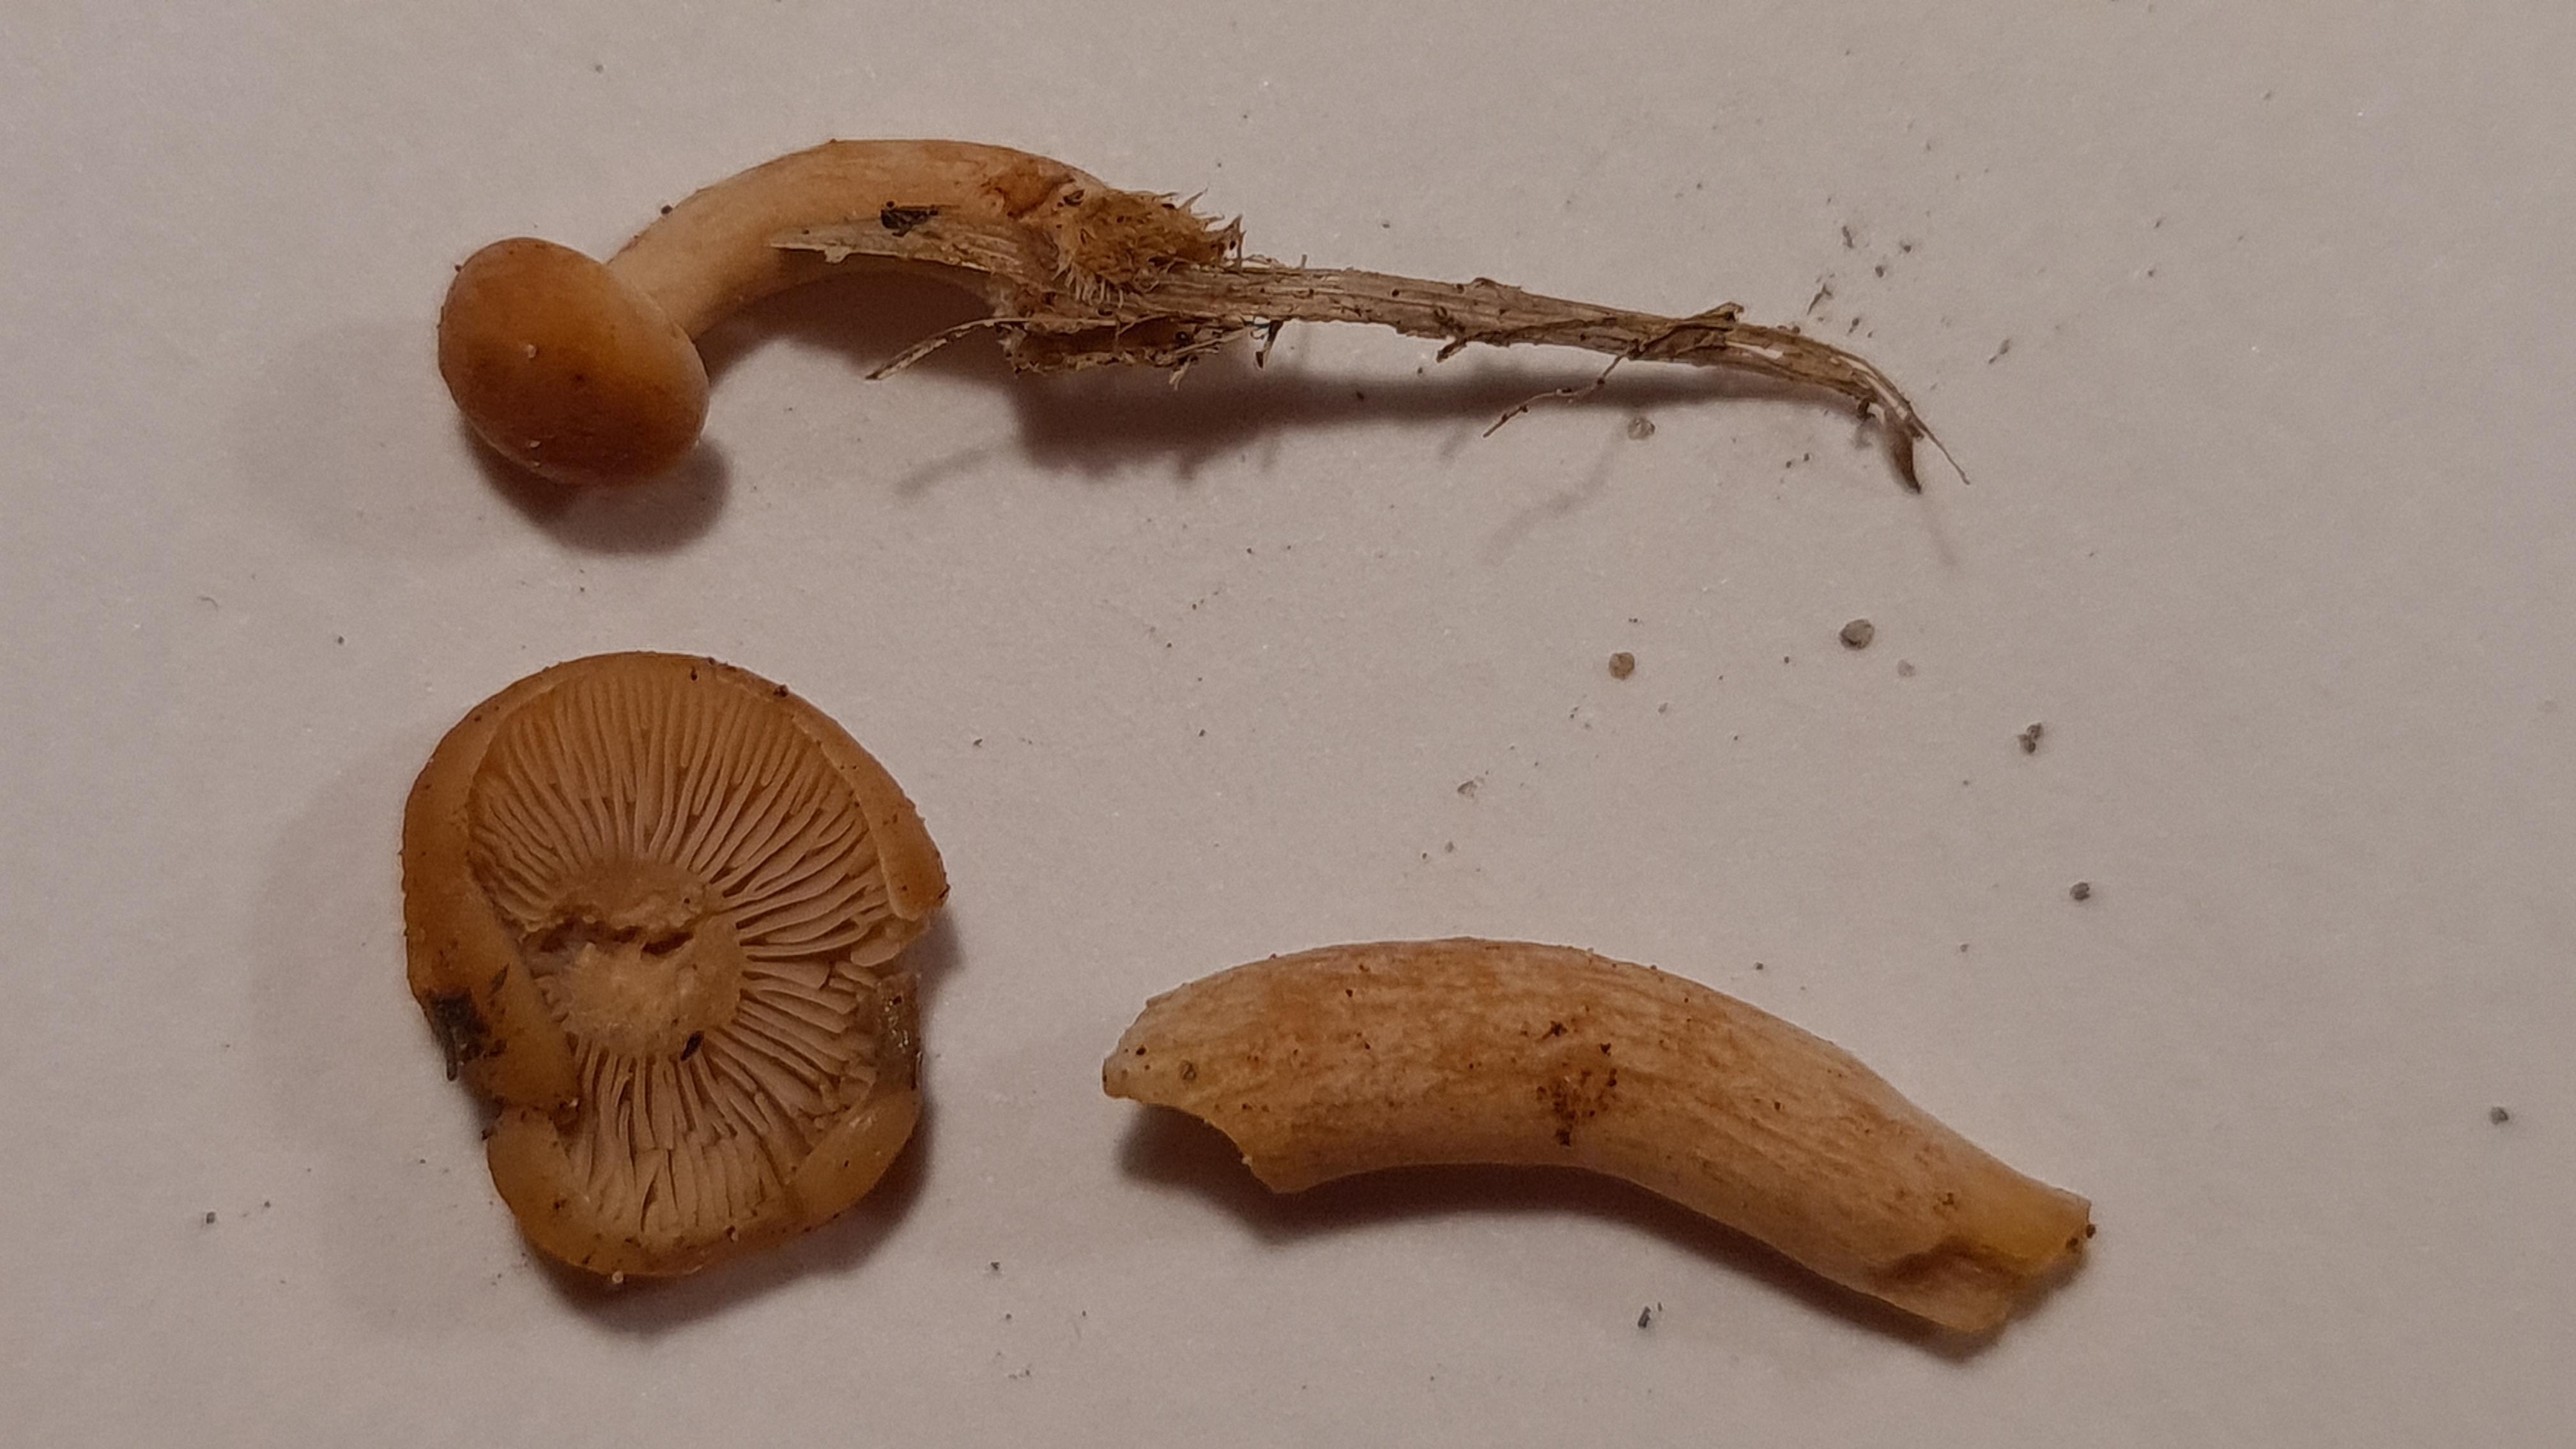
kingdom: Fungi
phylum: Basidiomycota
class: Agaricomycetes
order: Russulales
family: Russulaceae
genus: Lactarius
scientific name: Lactarius
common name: mælkehat
